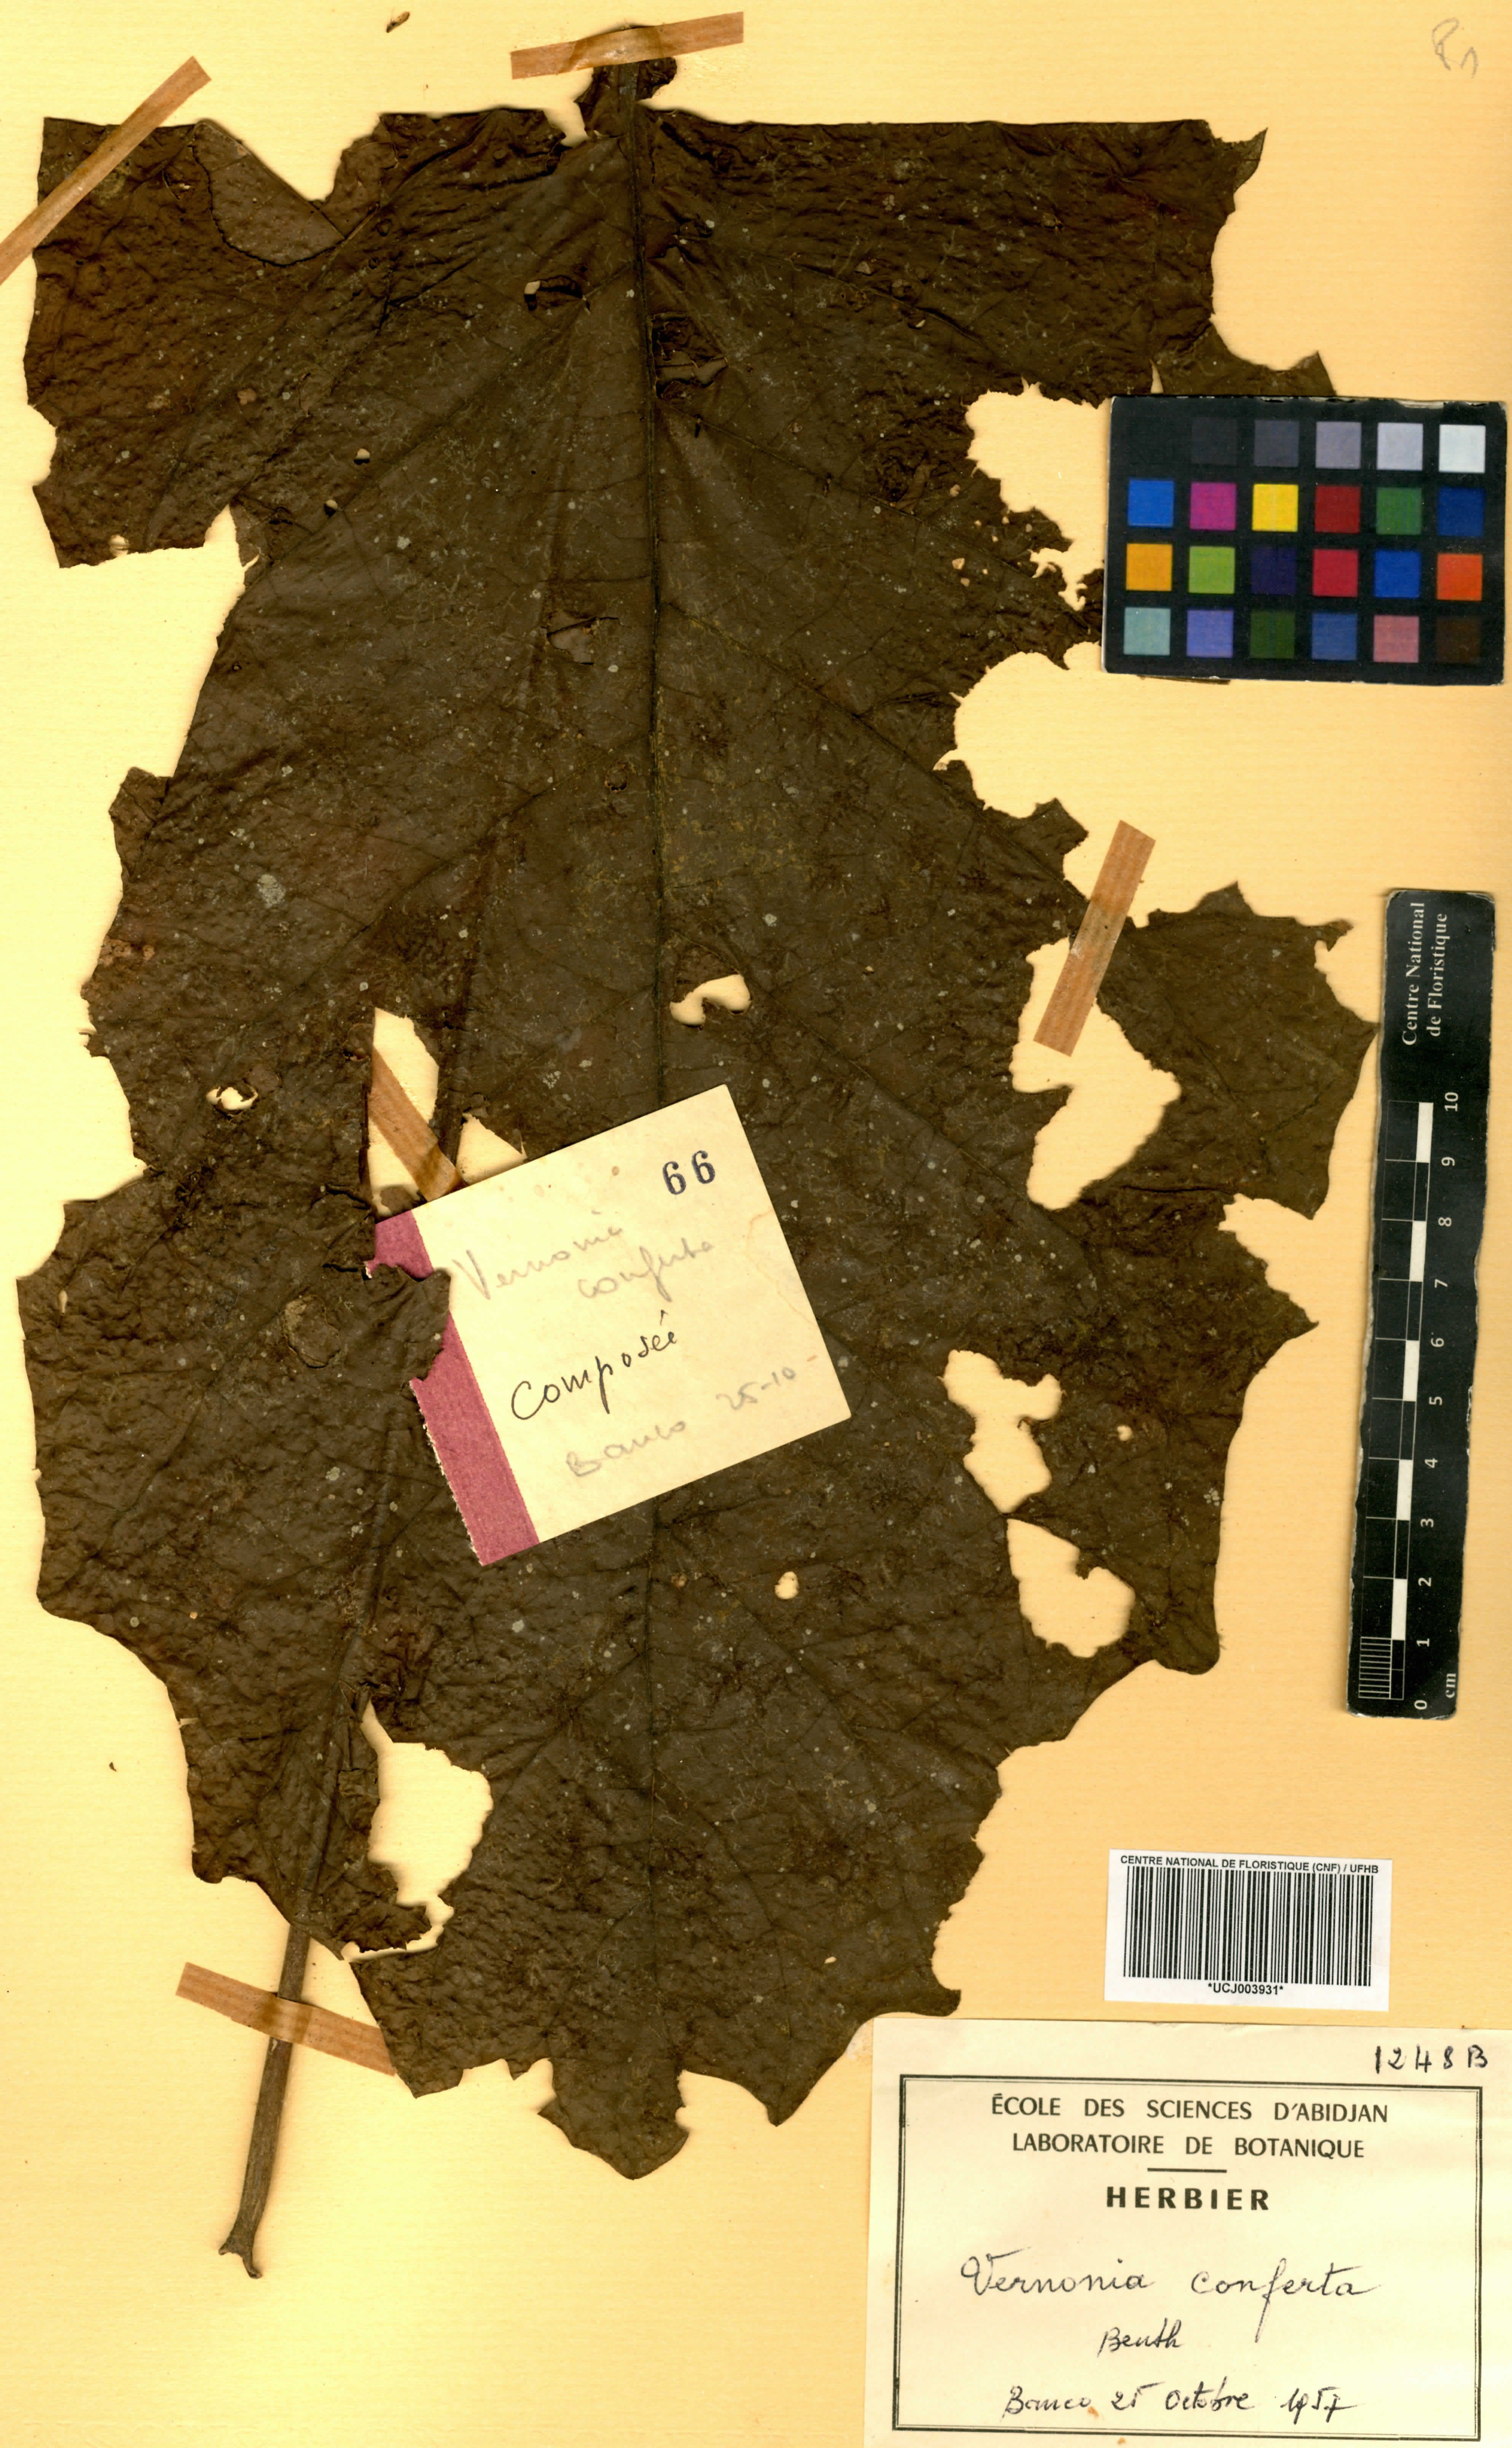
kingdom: Plantae
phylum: Tracheophyta
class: Magnoliopsida
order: Asterales
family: Asteraceae
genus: Monosis
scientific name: Monosis conferta
